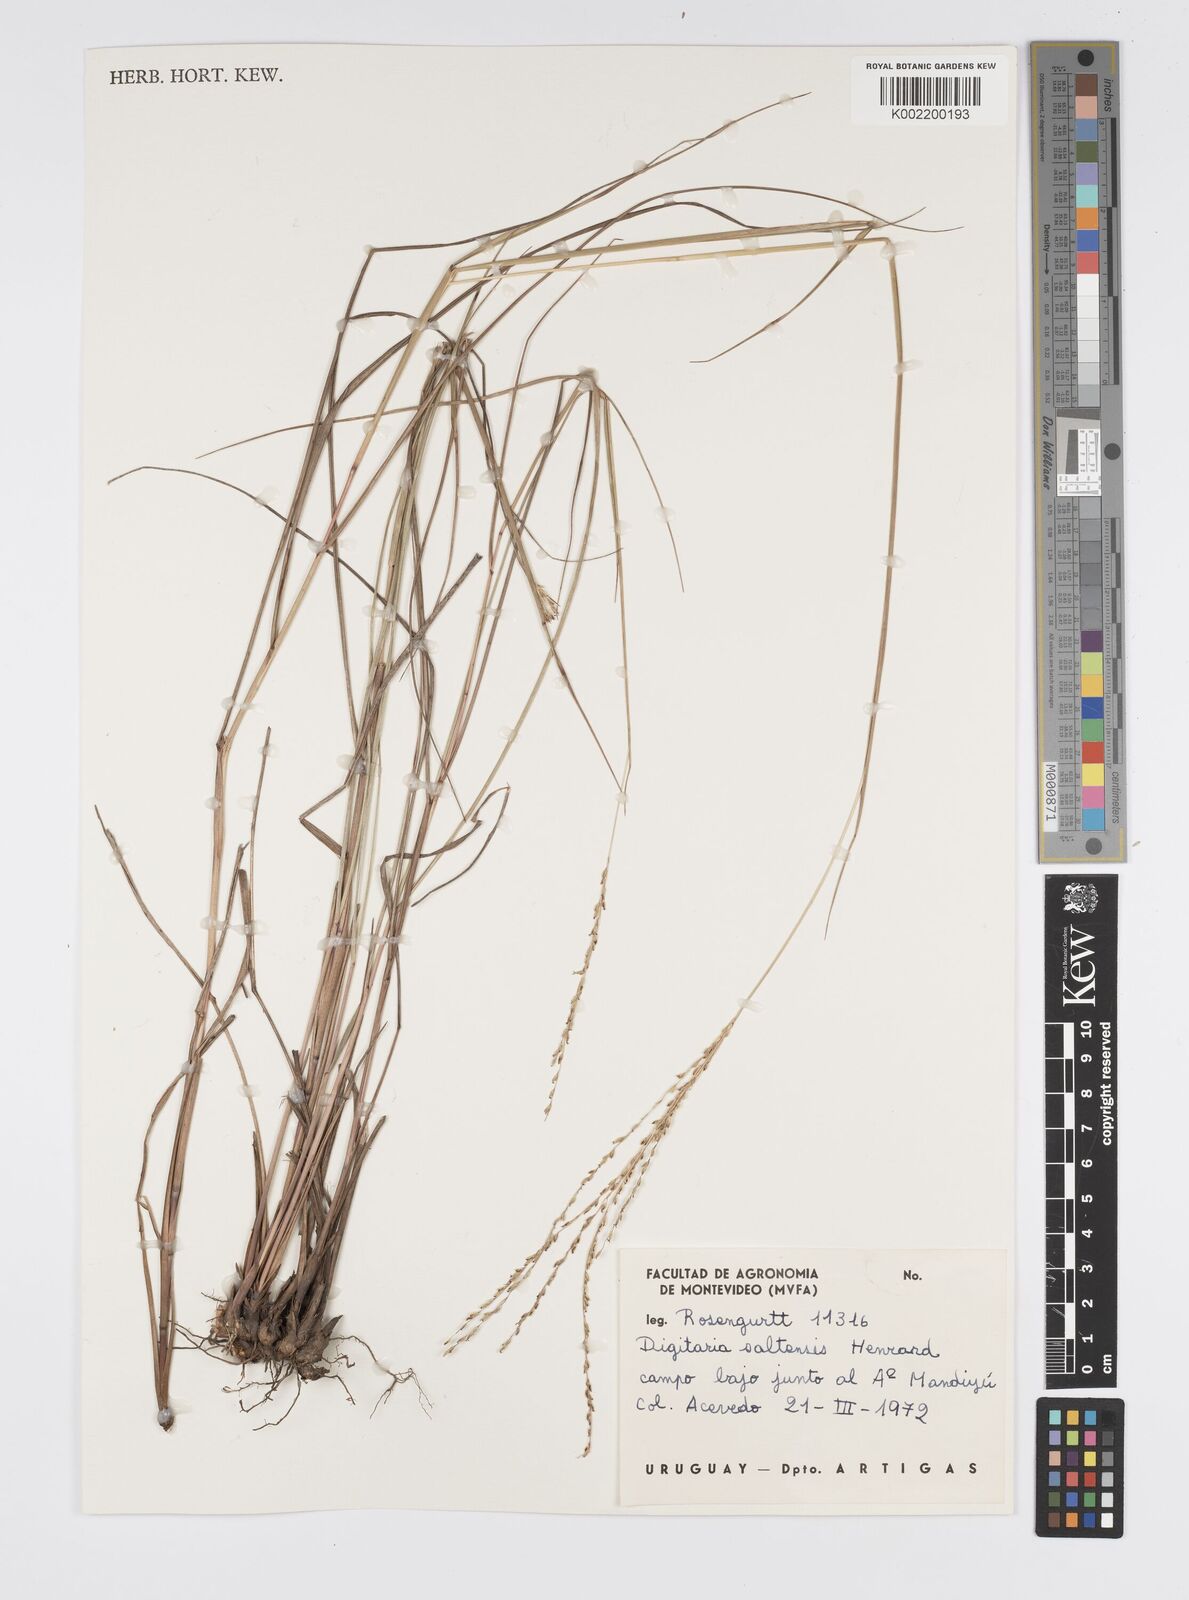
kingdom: Plantae
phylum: Tracheophyta
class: Liliopsida
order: Poales
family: Poaceae
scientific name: Poaceae
